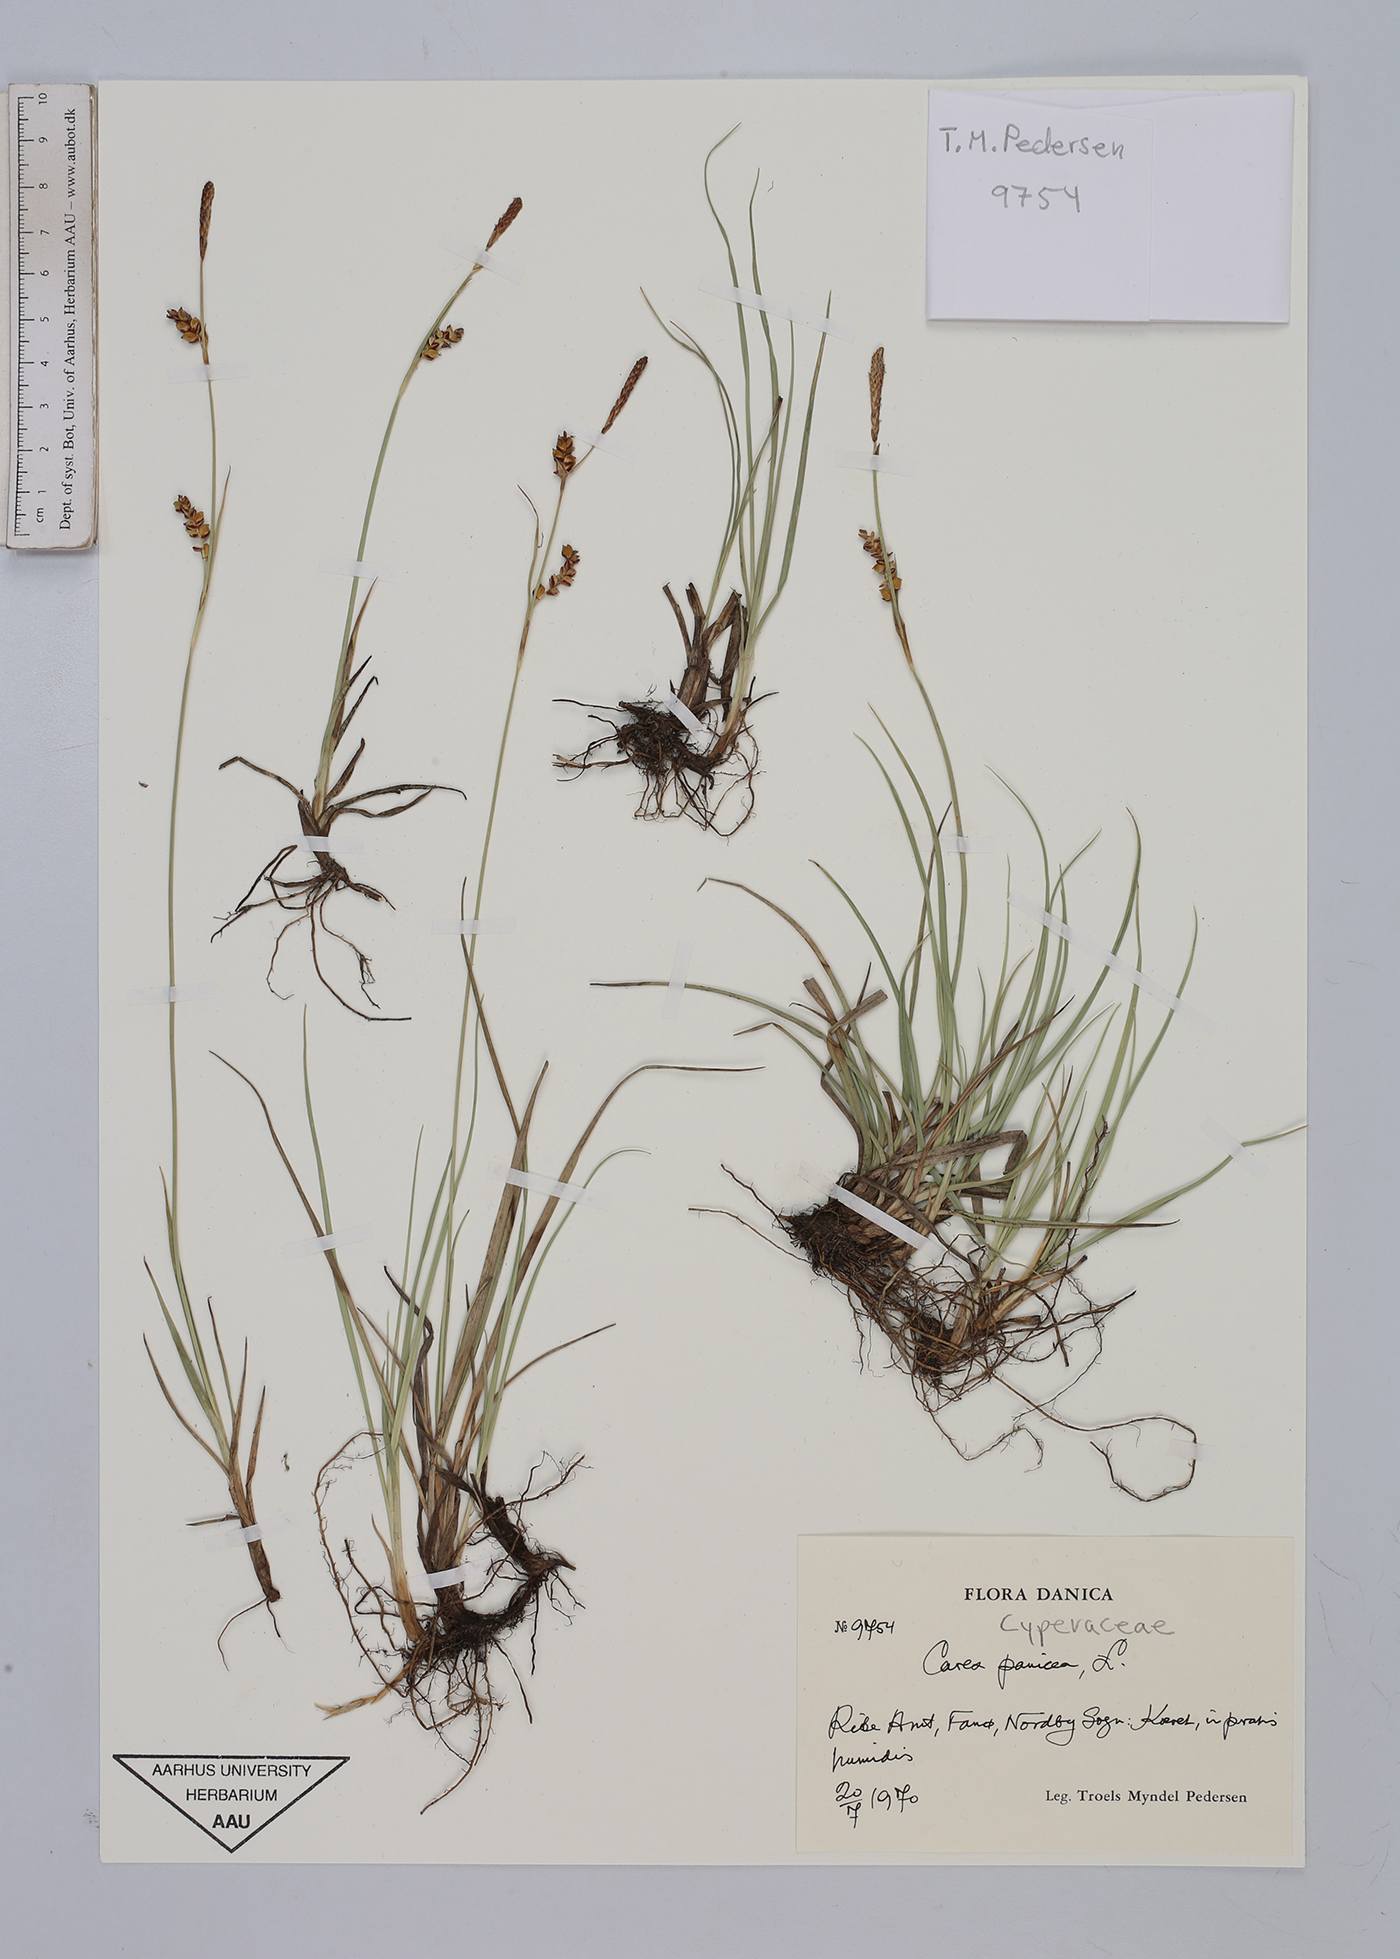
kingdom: Plantae
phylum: Tracheophyta
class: Liliopsida
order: Poales
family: Cyperaceae
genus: Carex
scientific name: Carex panicea
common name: Carnation sedge
